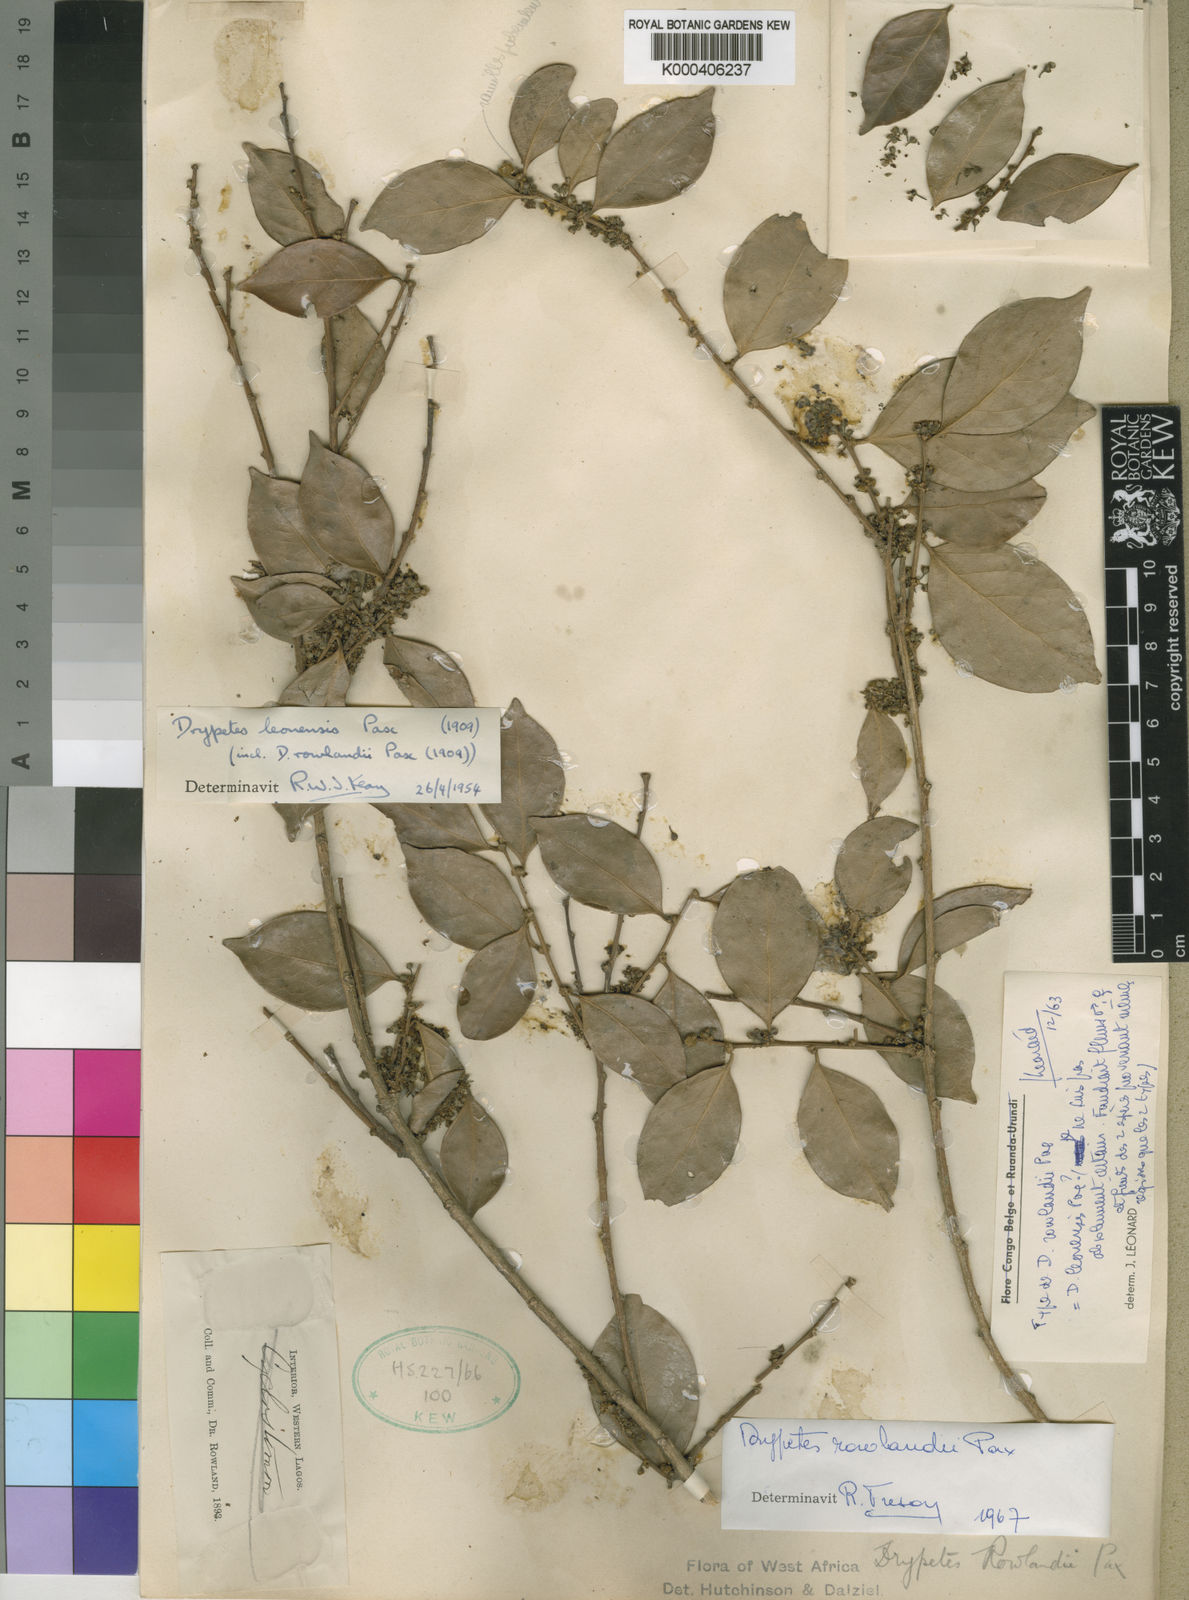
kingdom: Plantae
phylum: Tracheophyta
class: Magnoliopsida
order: Malpighiales
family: Putranjivaceae
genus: Drypetes
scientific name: Drypetes leonensis
